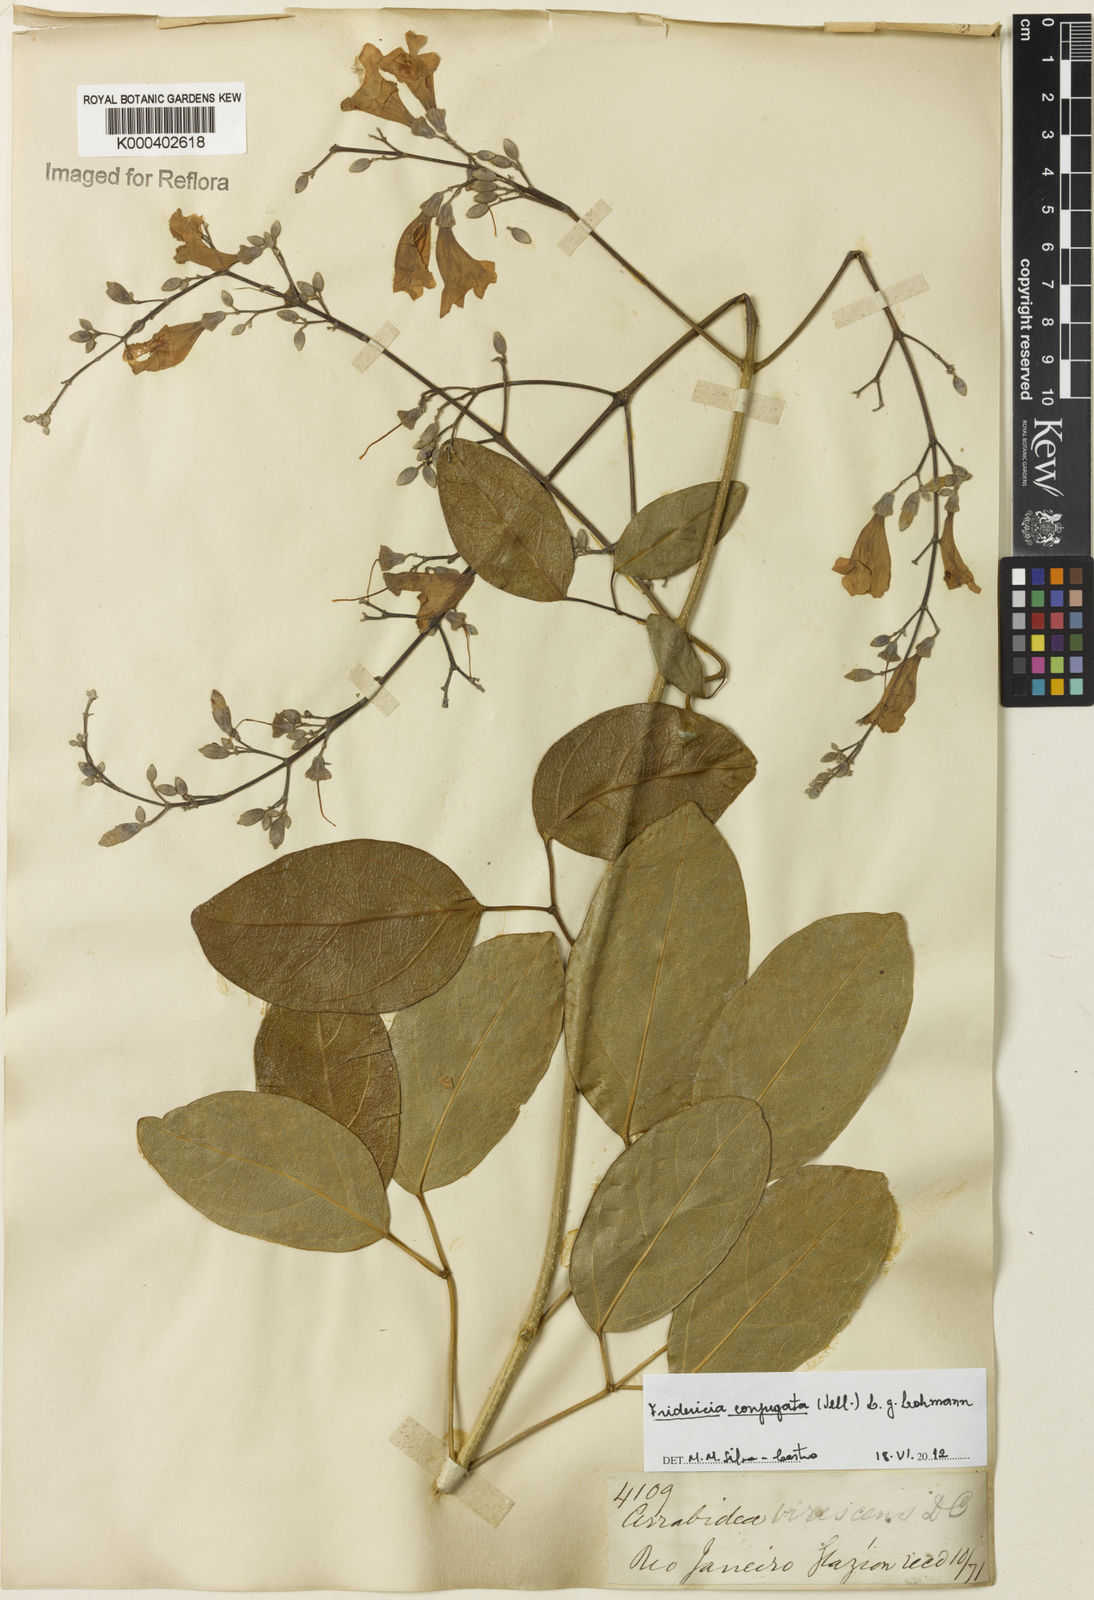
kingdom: Plantae
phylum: Tracheophyta
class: Magnoliopsida
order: Lamiales
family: Bignoniaceae
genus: Fridericia
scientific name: Fridericia conjugata
